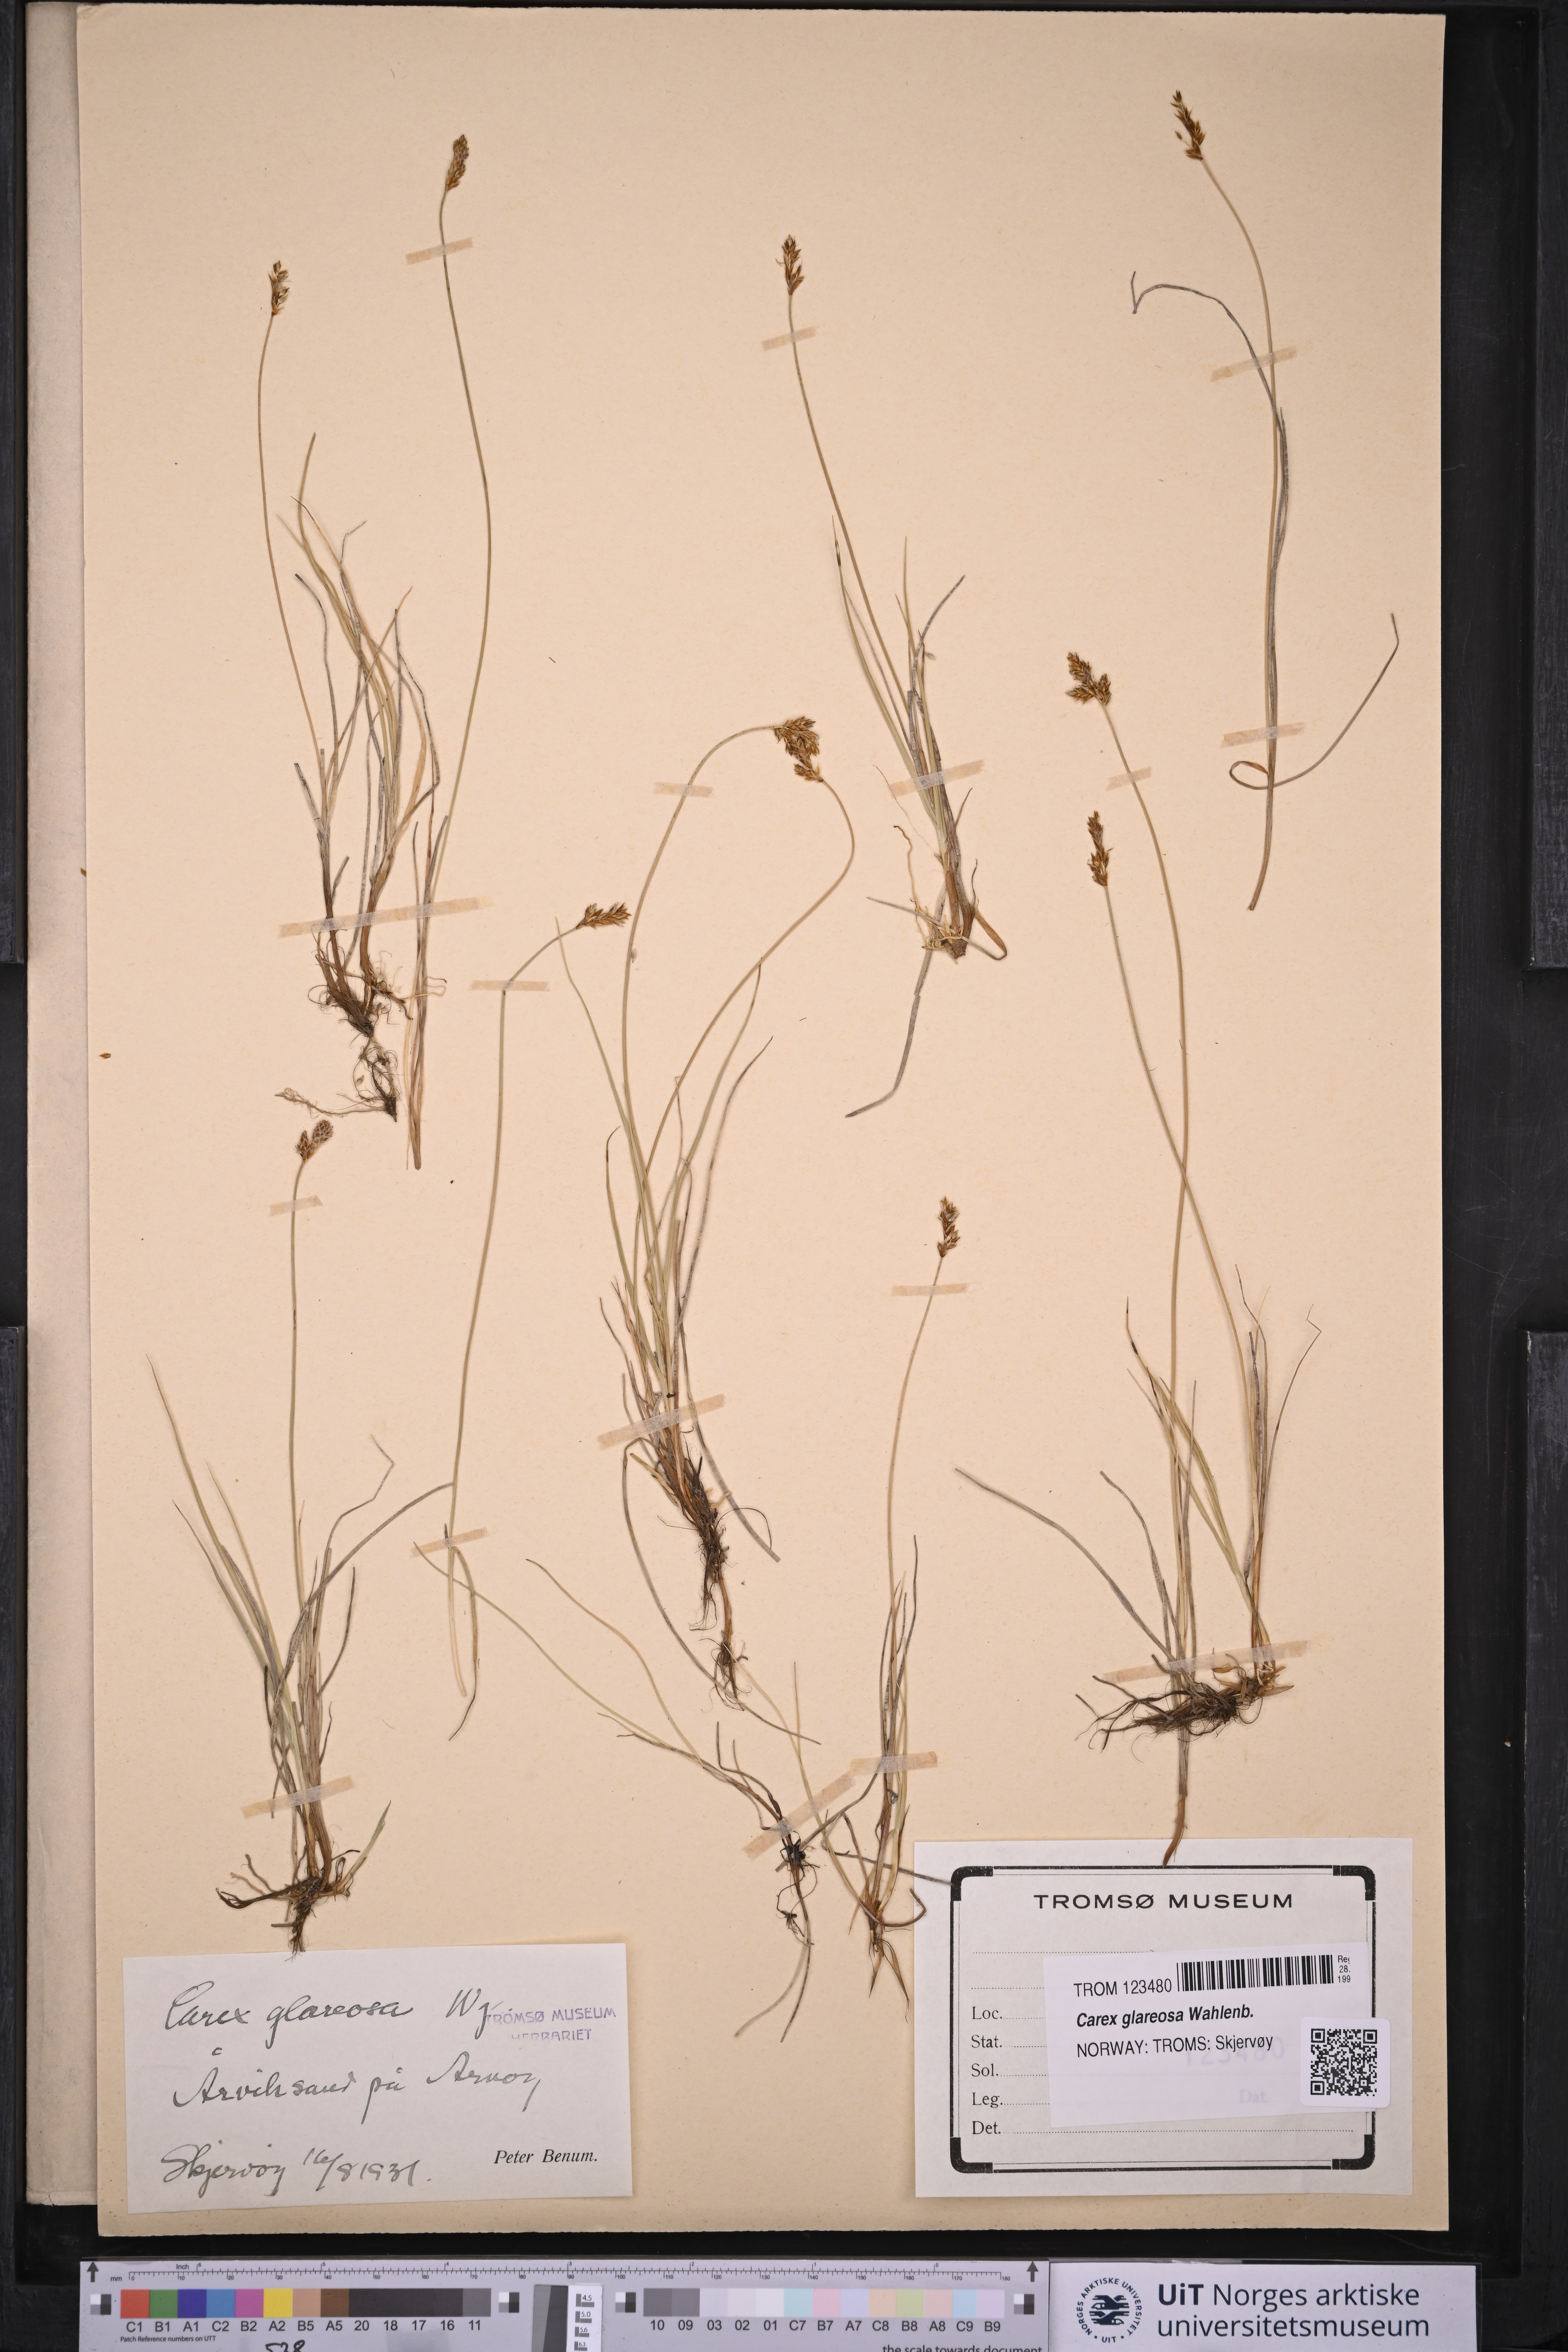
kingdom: Plantae
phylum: Tracheophyta
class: Liliopsida
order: Poales
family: Cyperaceae
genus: Carex
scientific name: Carex glareosa
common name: Clustered sedge
